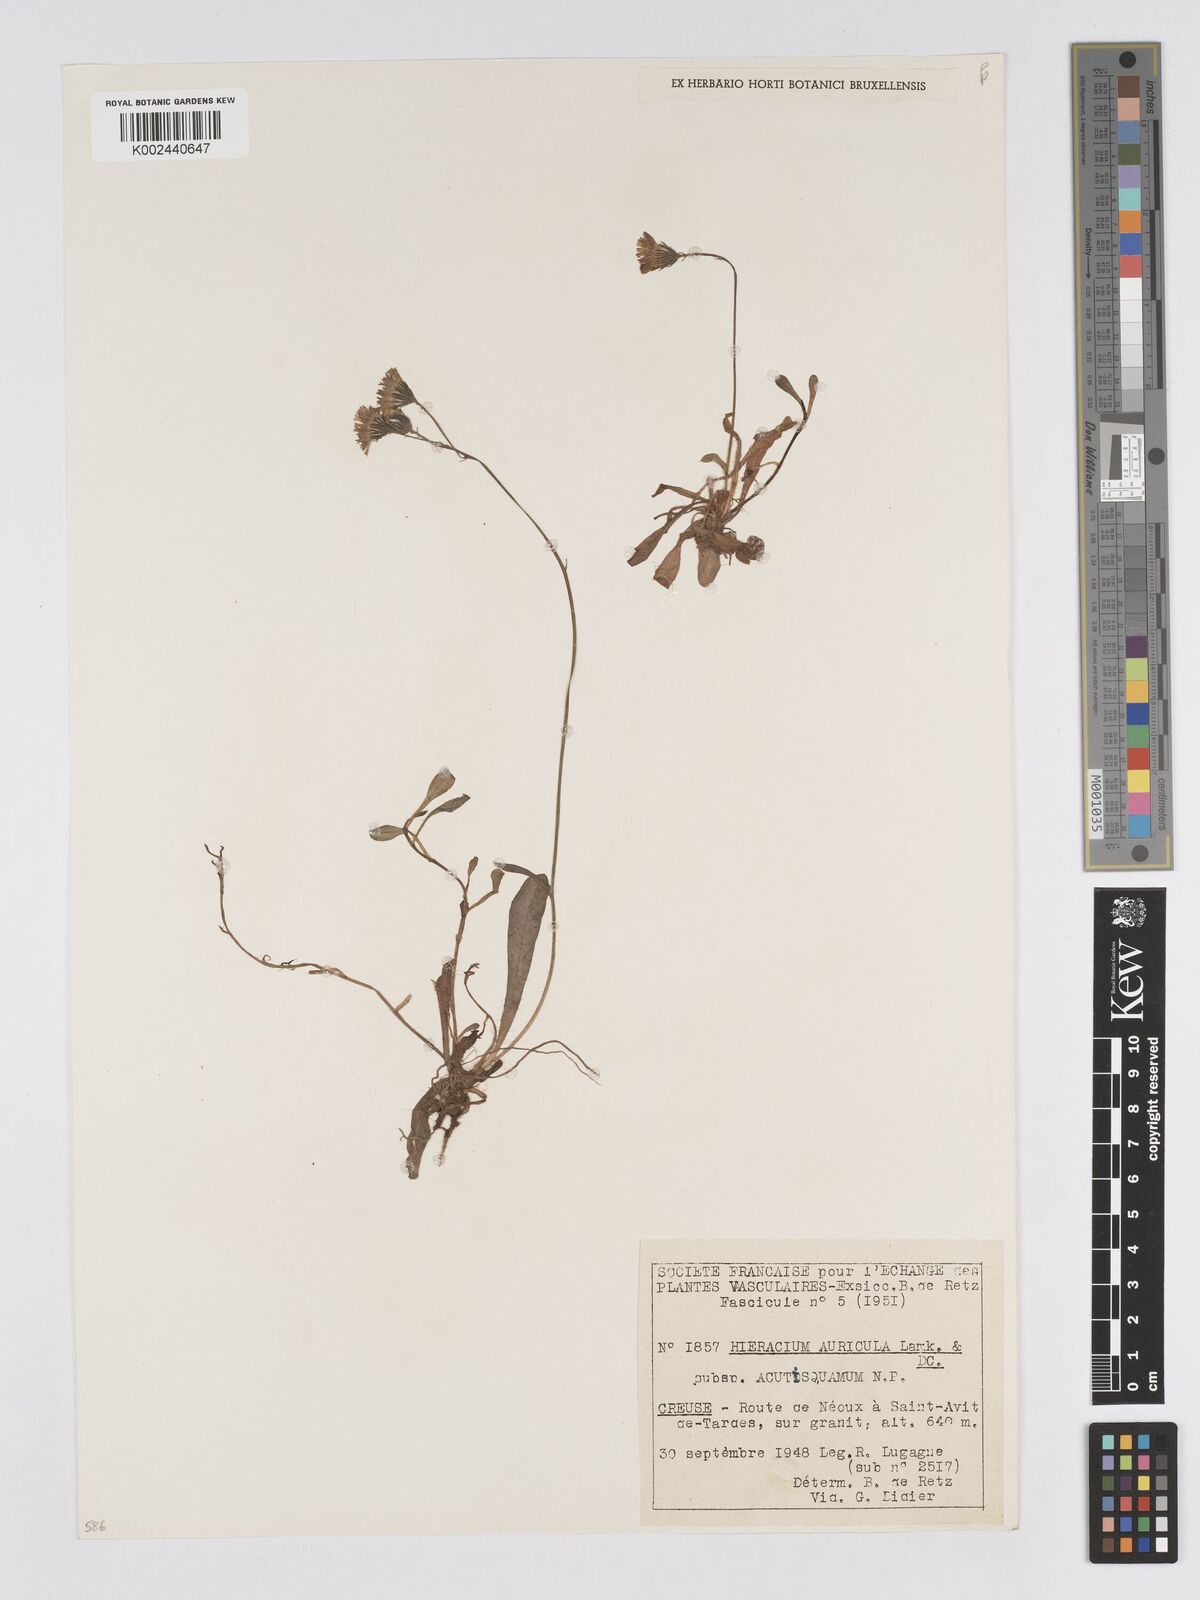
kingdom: Plantae
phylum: Tracheophyta
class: Magnoliopsida
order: Asterales
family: Asteraceae
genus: Pilosella
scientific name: Pilosella lactucella
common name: Glaucous fox-and-cubs
